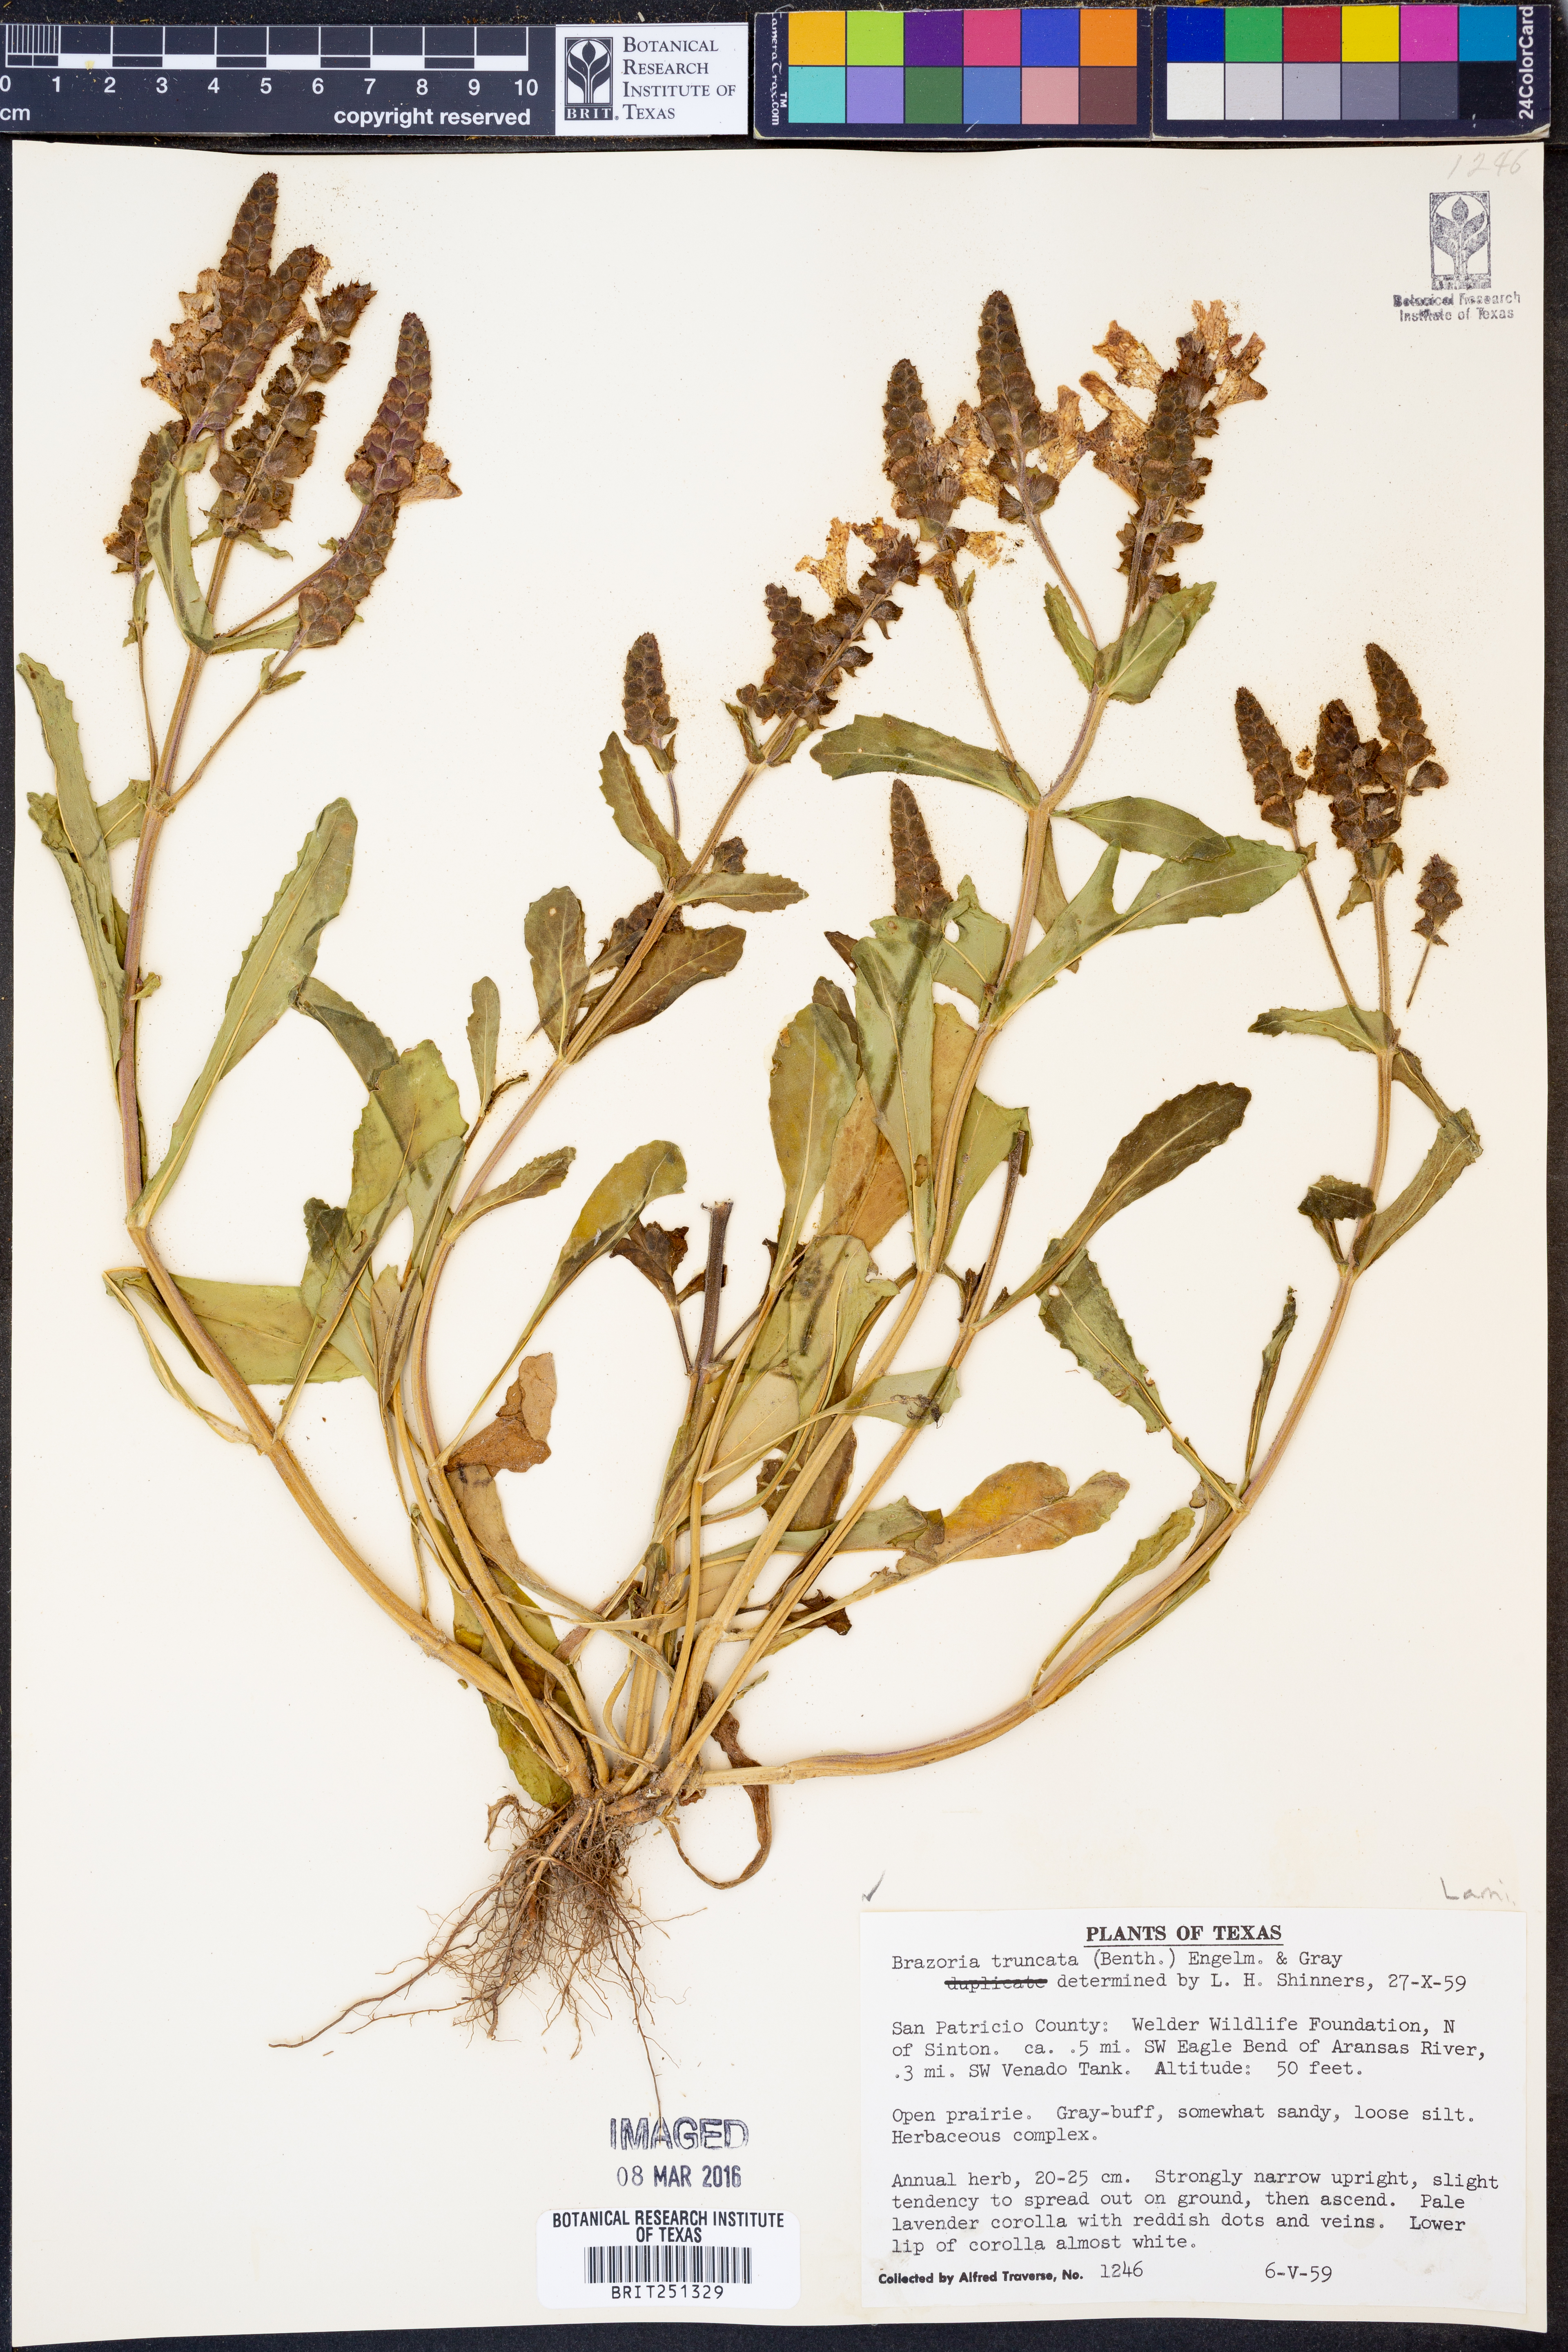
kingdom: Plantae
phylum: Tracheophyta
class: Magnoliopsida
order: Lamiales
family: Lamiaceae
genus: Brazoria
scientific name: Brazoria truncata
